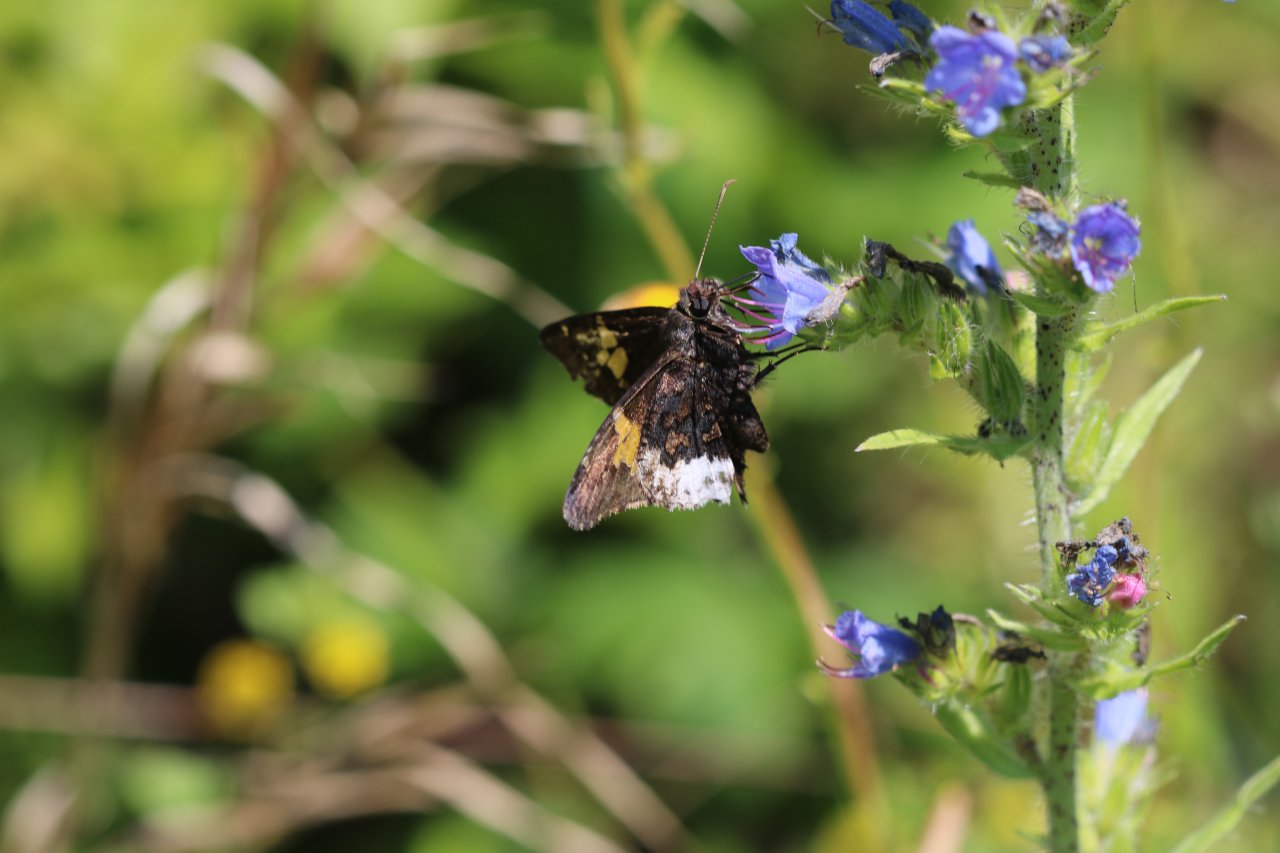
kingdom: Animalia
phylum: Arthropoda
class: Insecta
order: Lepidoptera
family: Hesperiidae
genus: Achalarus
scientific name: Achalarus lyciades
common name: Hoary Edge
